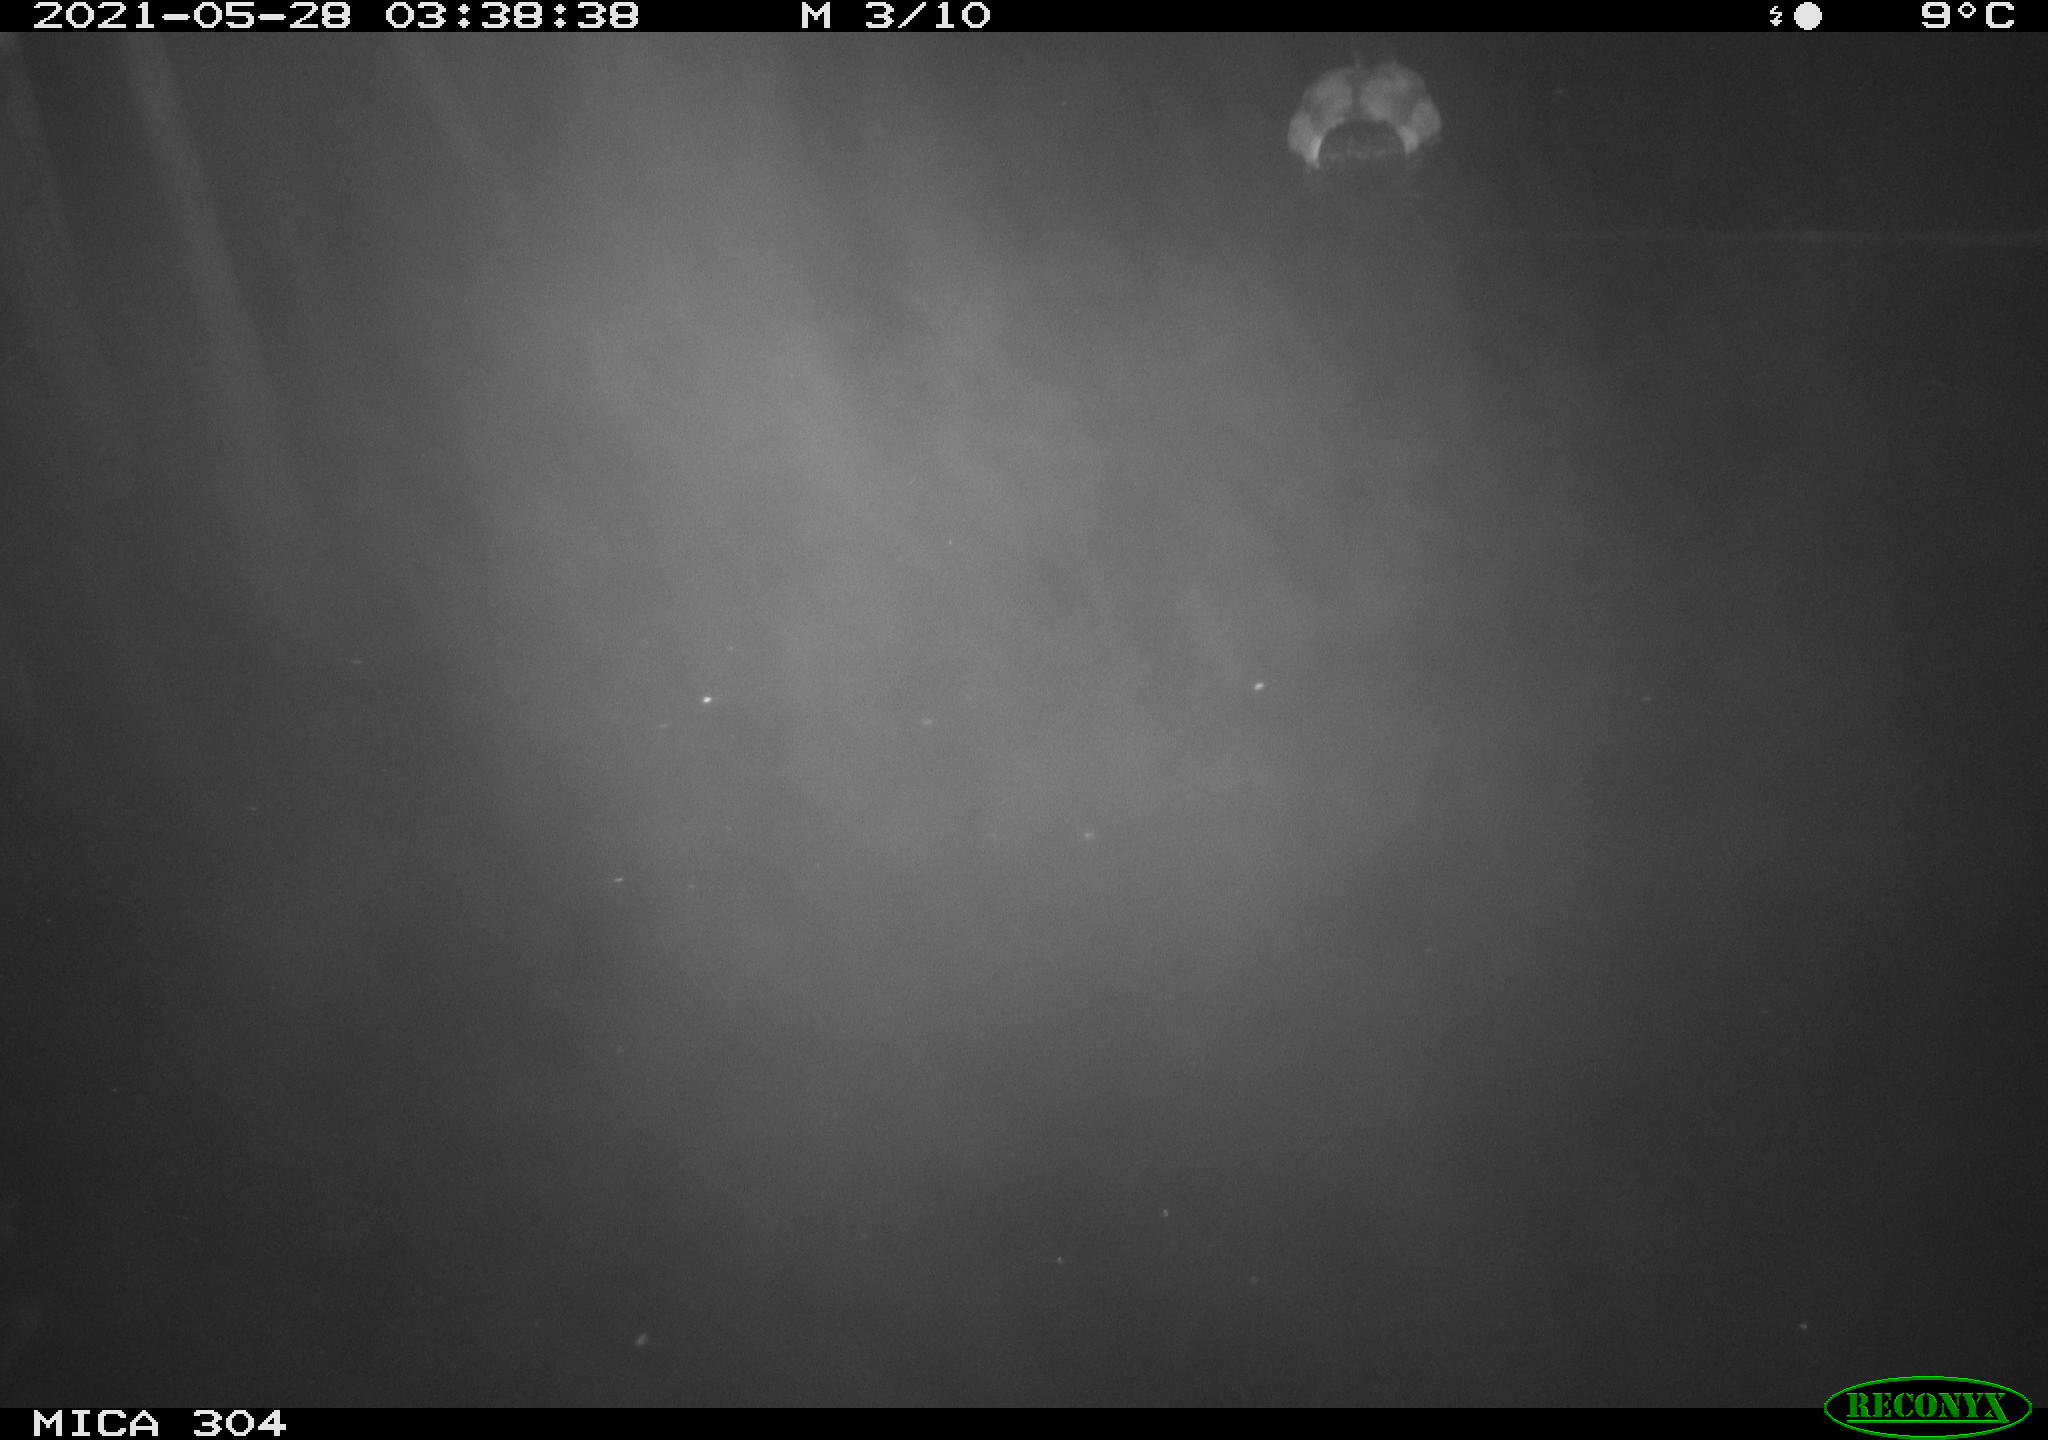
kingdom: Animalia
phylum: Chordata
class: Aves
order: Anseriformes
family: Anatidae
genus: Anas
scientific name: Anas platyrhynchos
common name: Mallard
